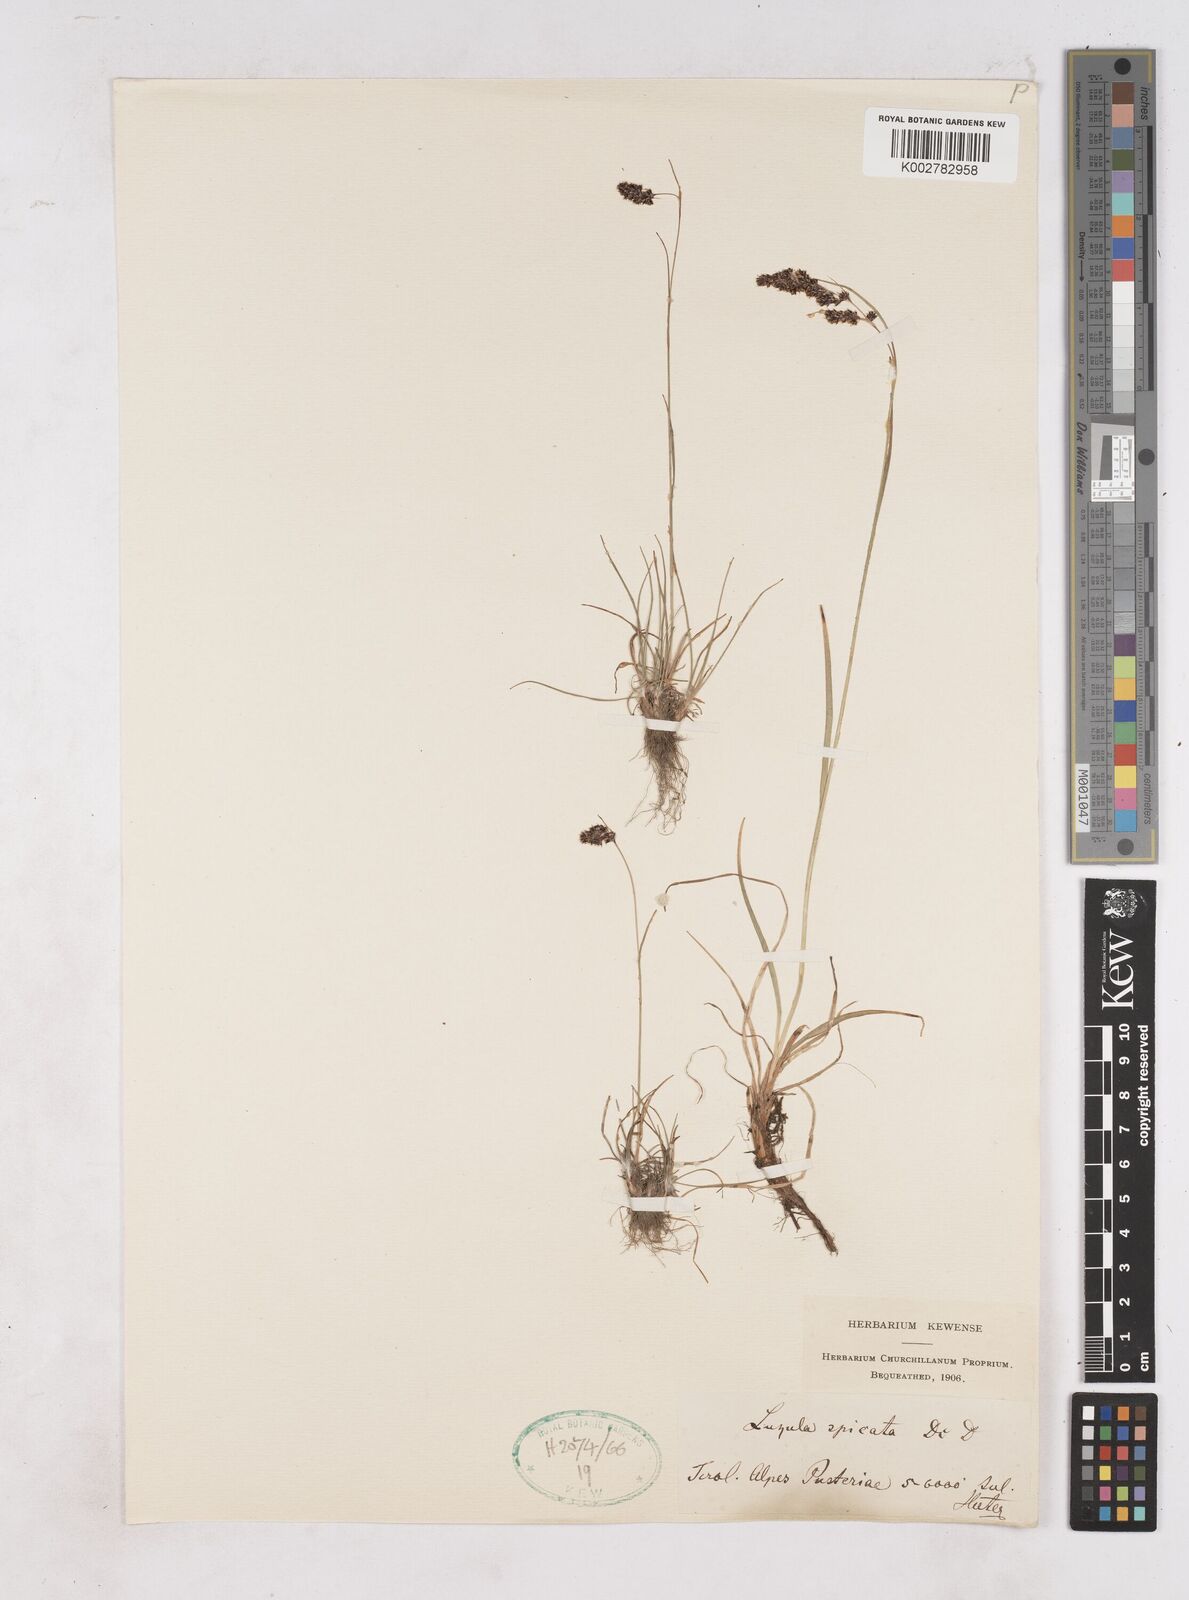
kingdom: Plantae
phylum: Tracheophyta
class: Liliopsida
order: Poales
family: Juncaceae
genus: Luzula
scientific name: Luzula campestris
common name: Field wood-rush
